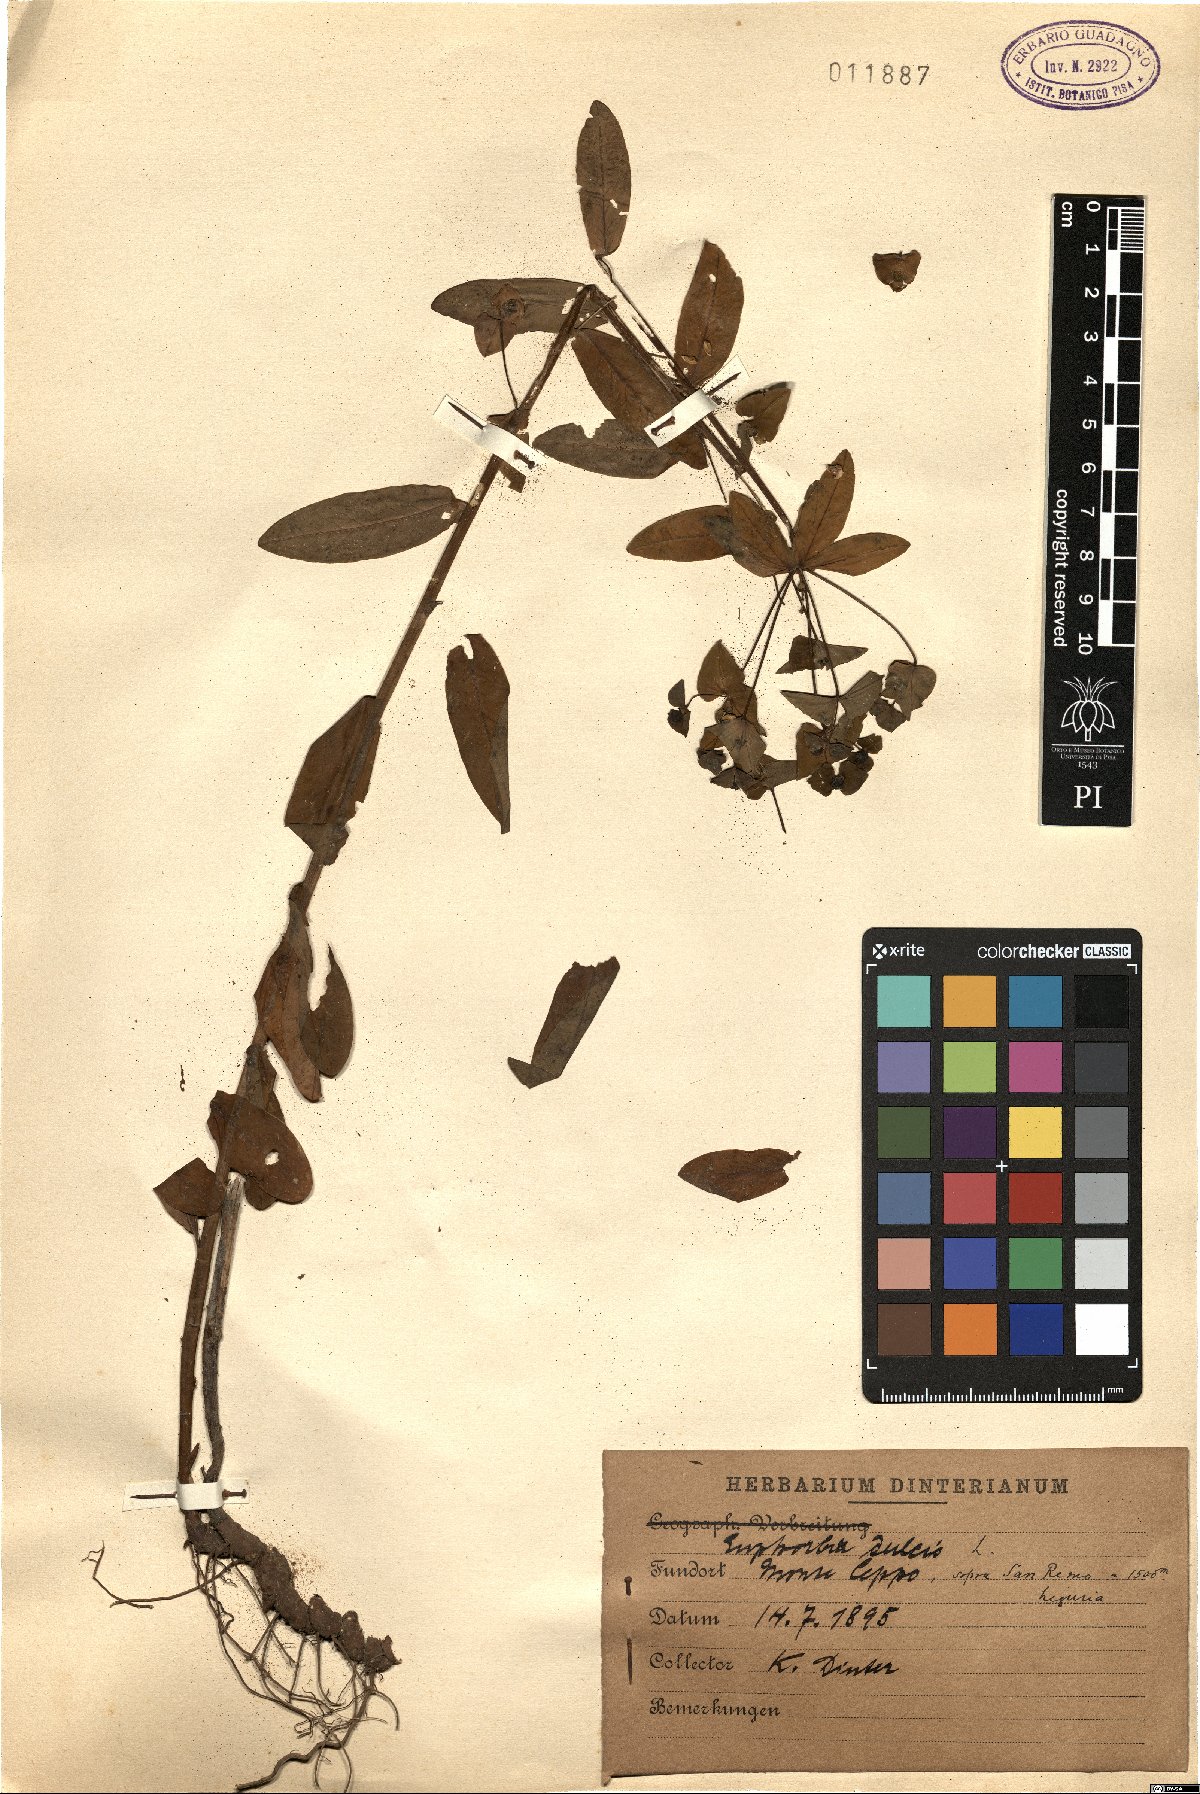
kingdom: Plantae
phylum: Tracheophyta
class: Magnoliopsida
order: Malpighiales
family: Euphorbiaceae
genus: Euphorbia
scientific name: Euphorbia dulcis
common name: Sweet spurge
